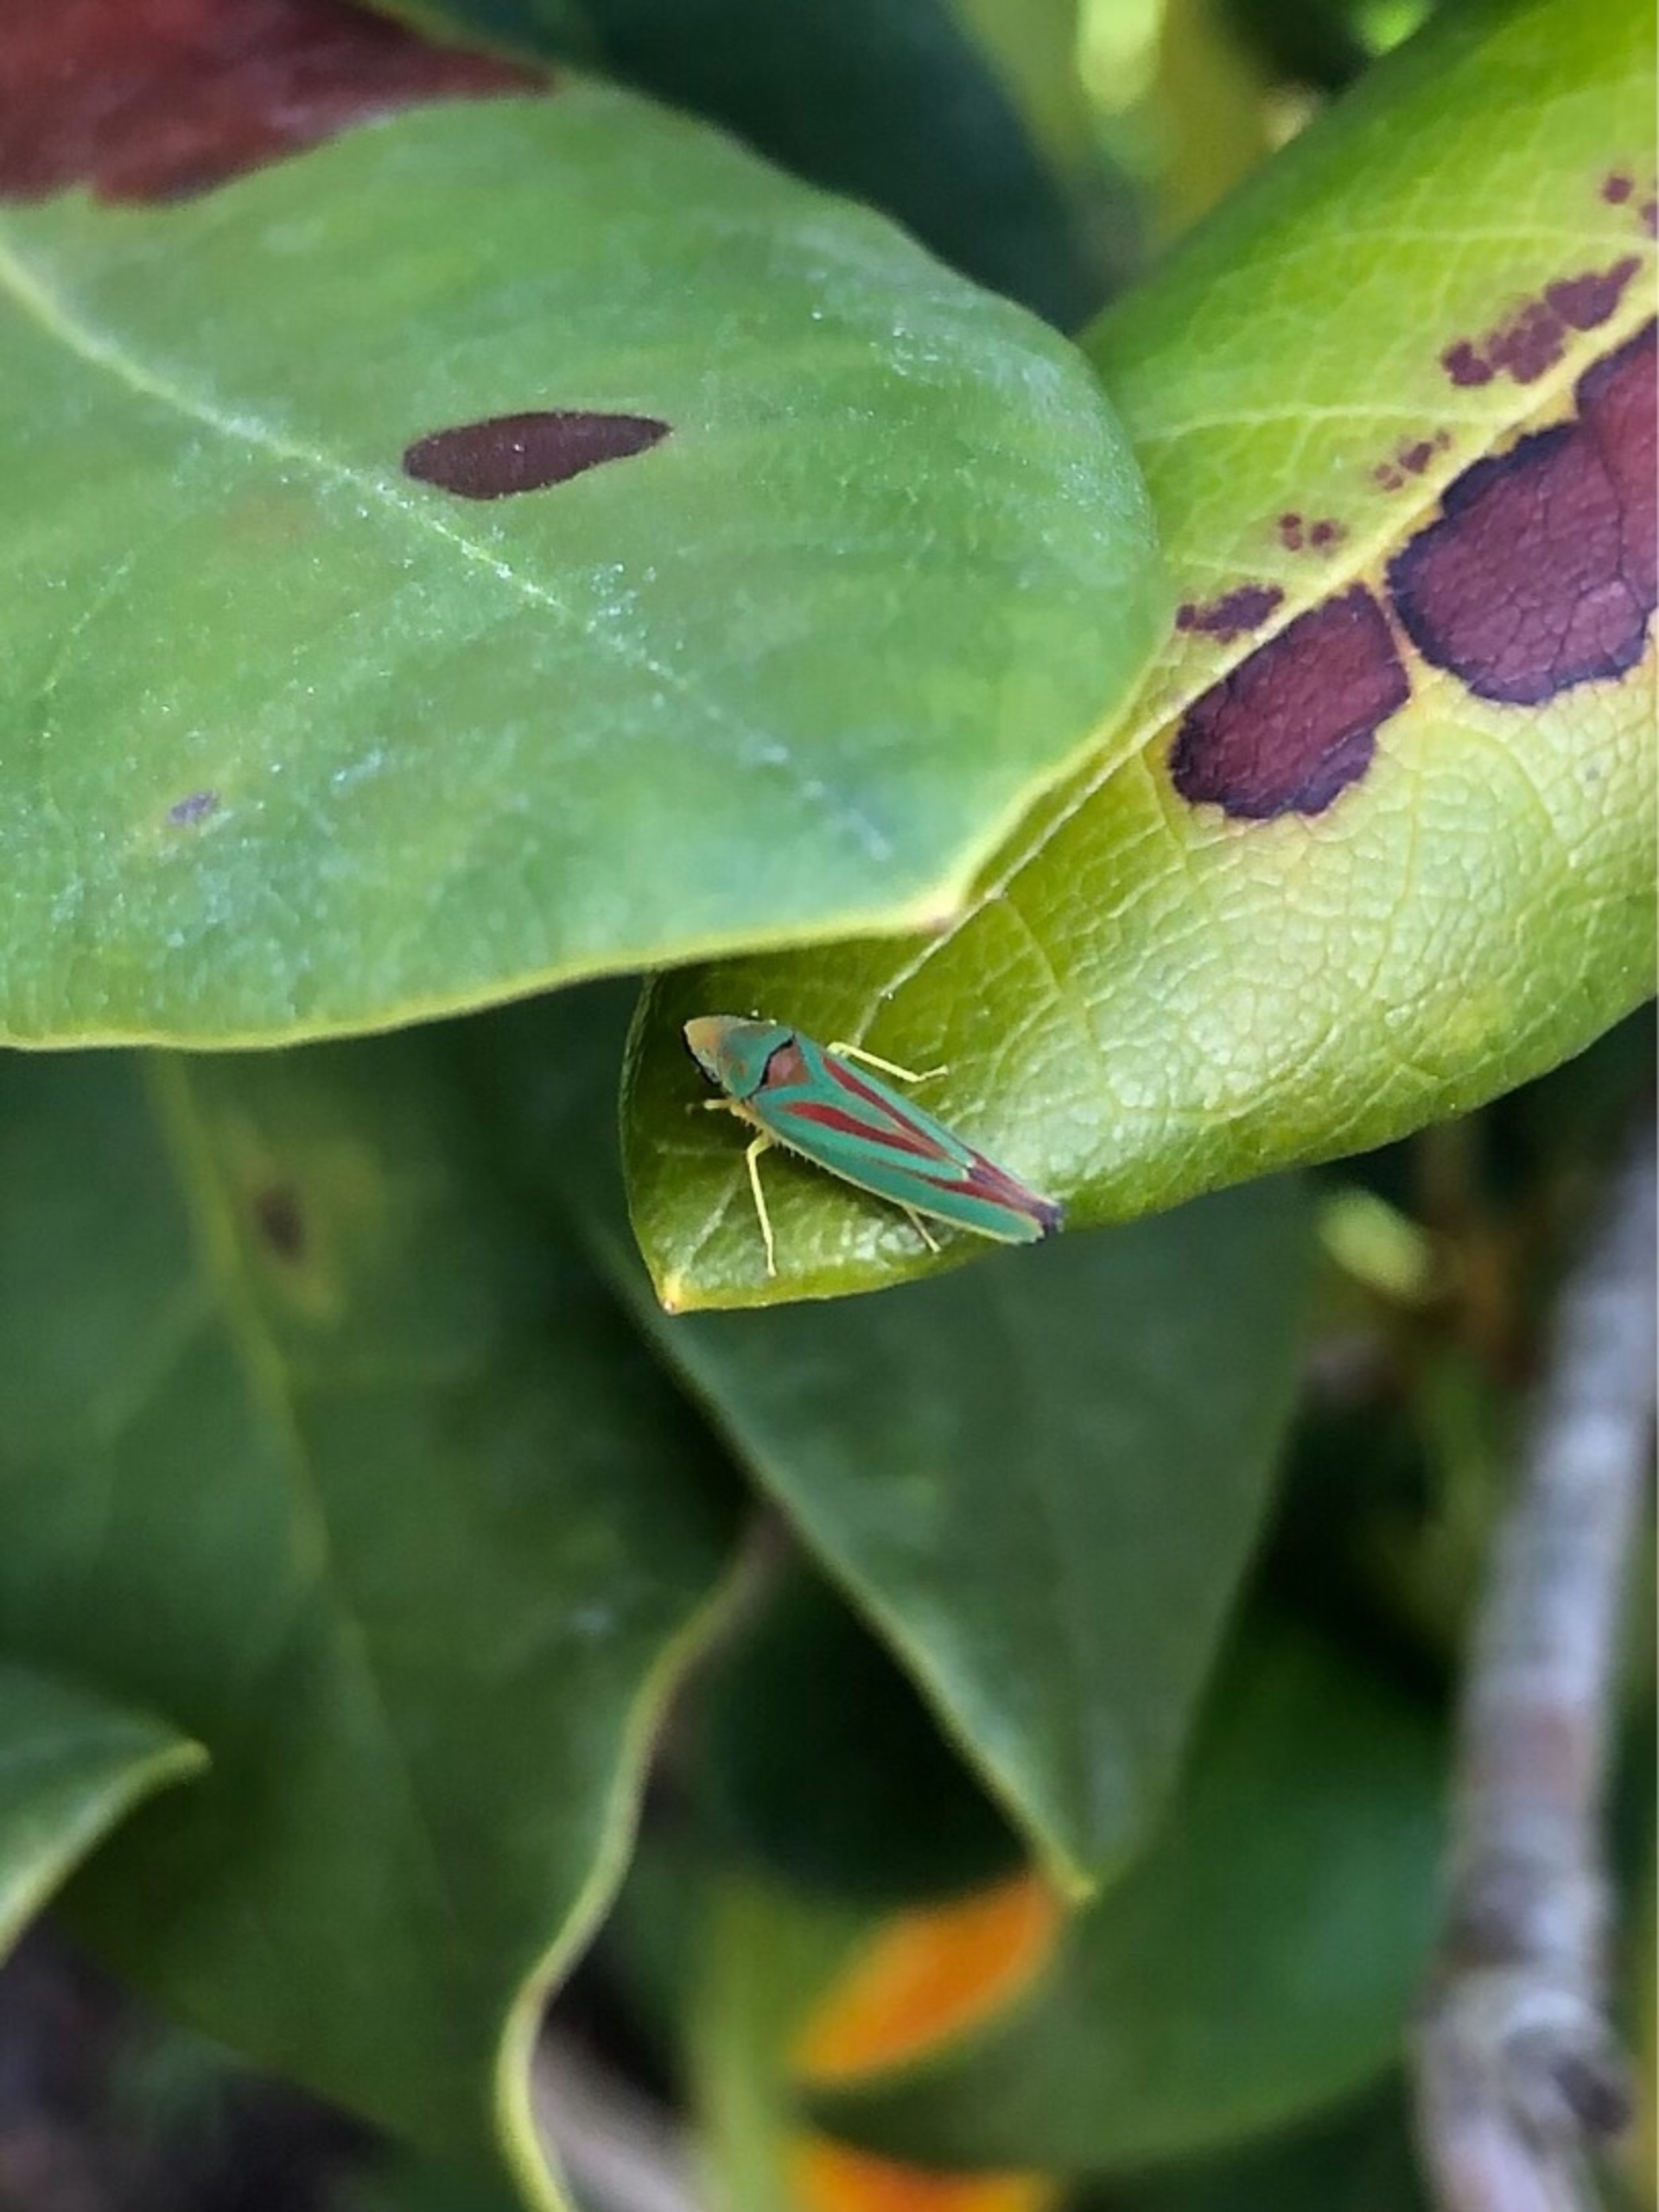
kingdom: Animalia
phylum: Arthropoda
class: Insecta
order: Hemiptera
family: Cicadellidae
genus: Graphocephala
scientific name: Graphocephala fennahi
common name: Rododendroncikade
